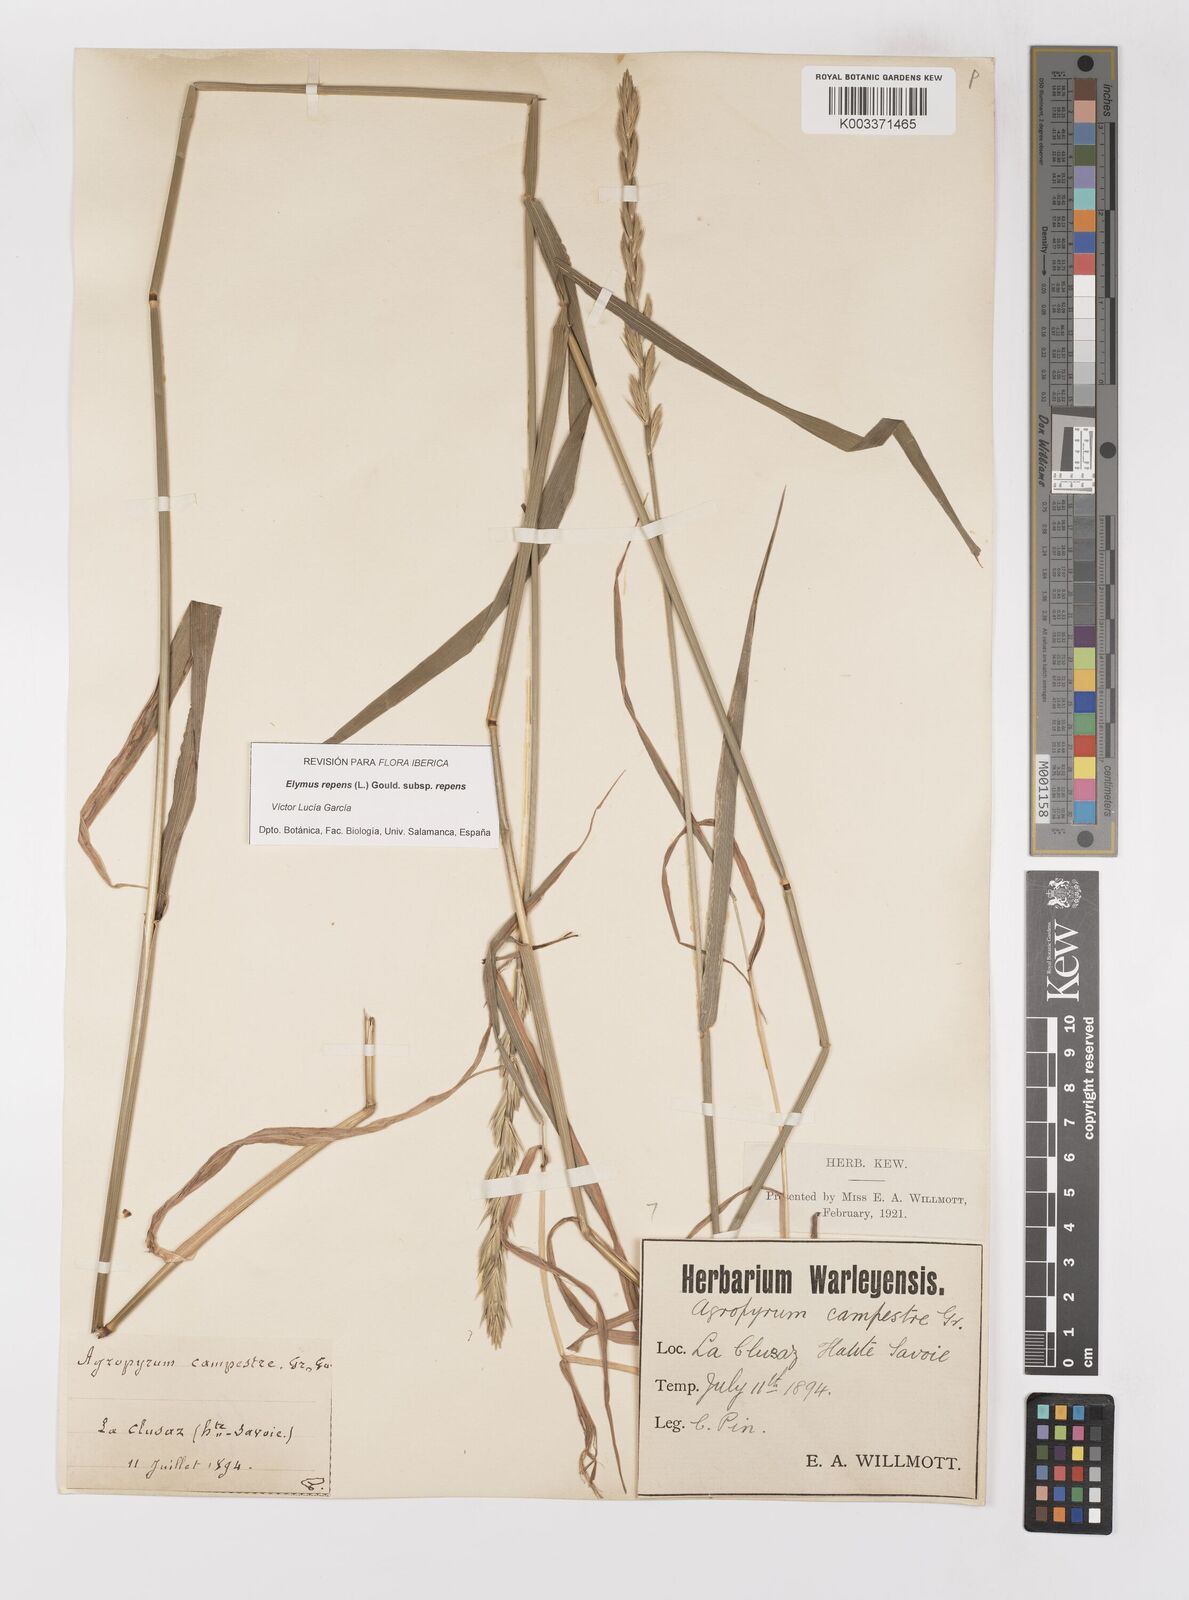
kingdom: Plantae
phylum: Tracheophyta
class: Liliopsida
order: Poales
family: Poaceae
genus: Elymus
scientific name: Elymus repens
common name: Quackgrass
